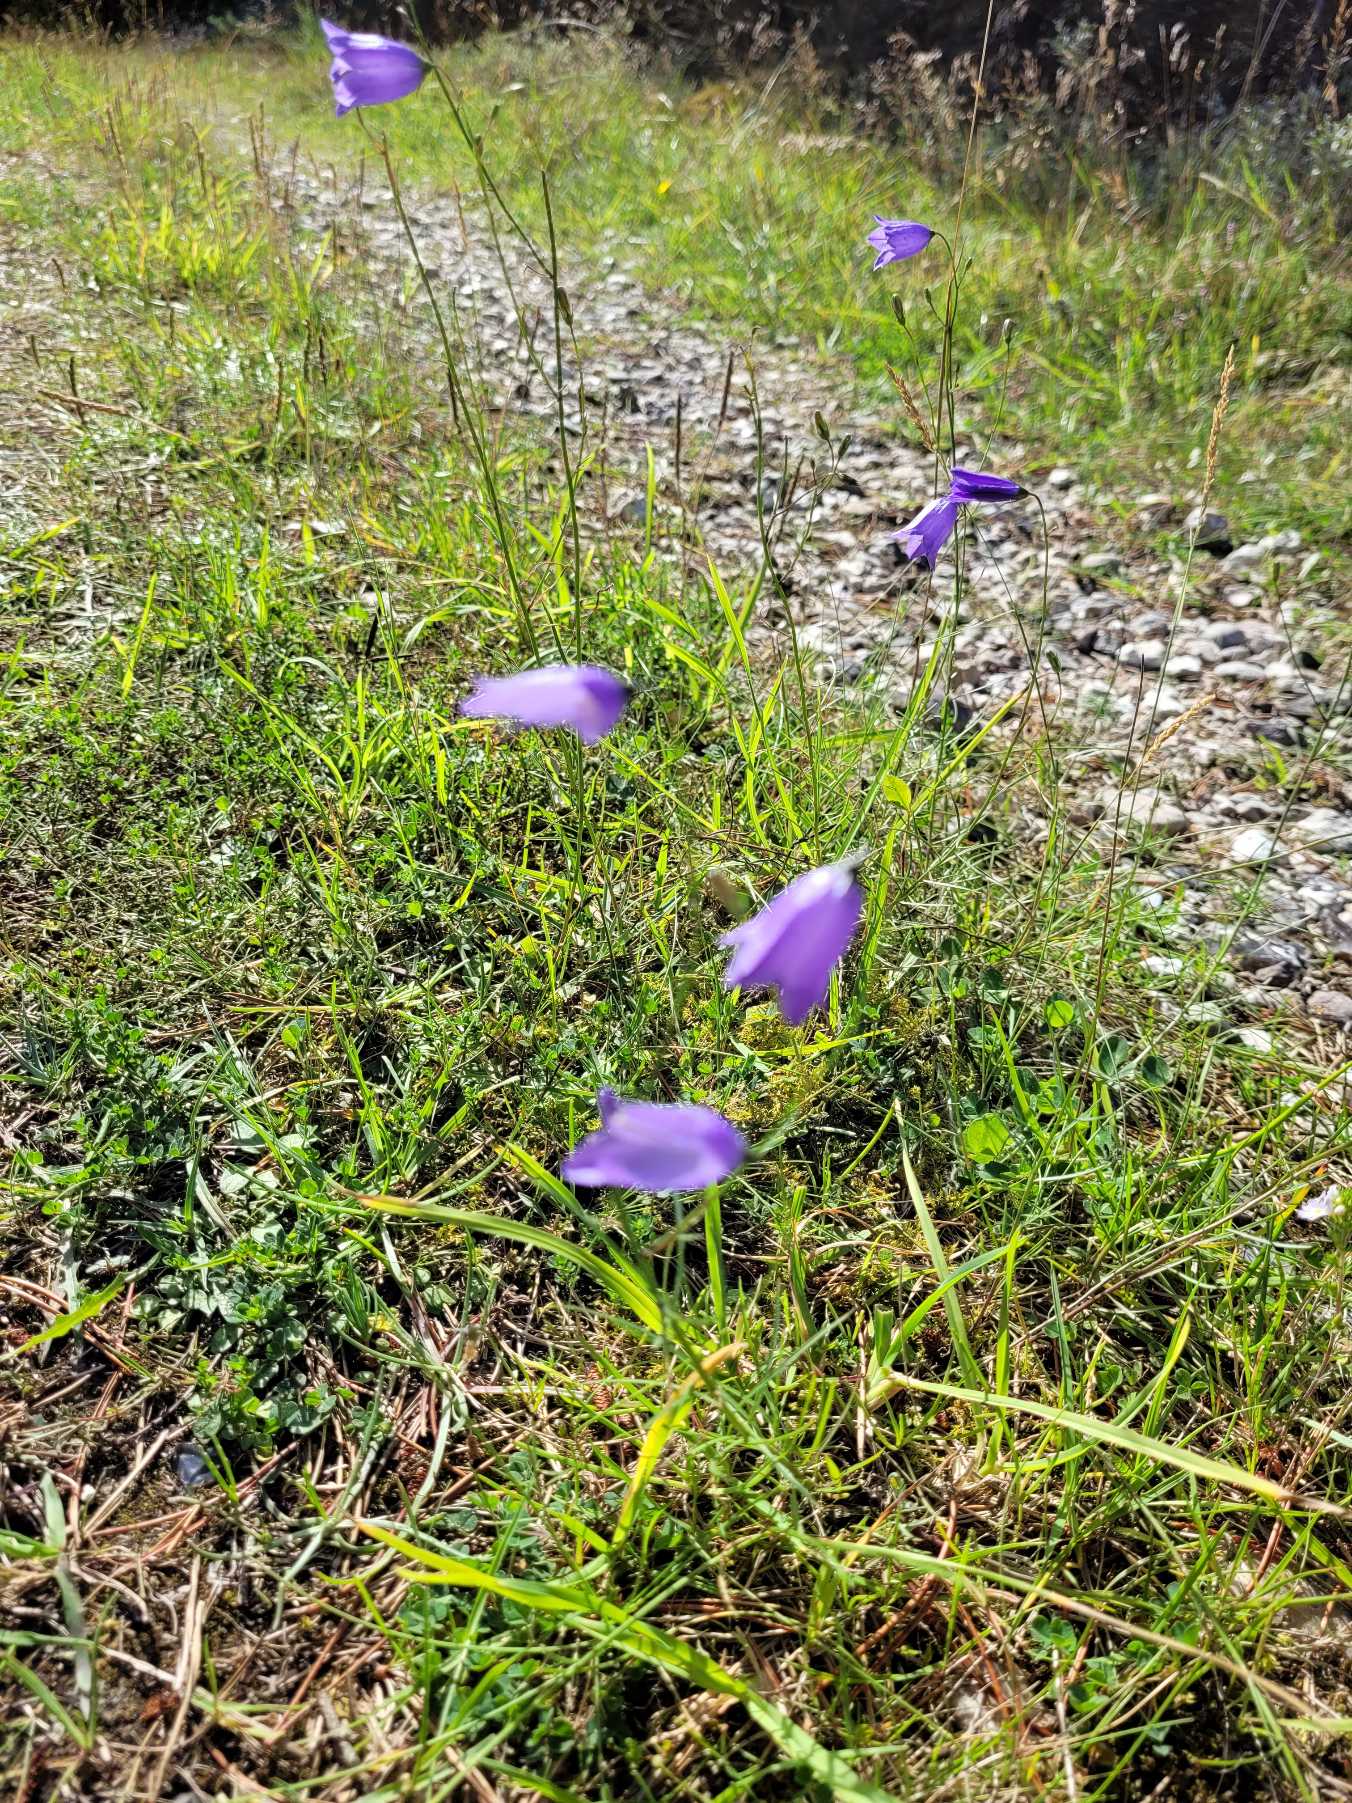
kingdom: Plantae
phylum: Tracheophyta
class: Magnoliopsida
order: Asterales
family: Campanulaceae
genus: Campanula
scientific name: Campanula rotundifolia
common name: Liden klokke
